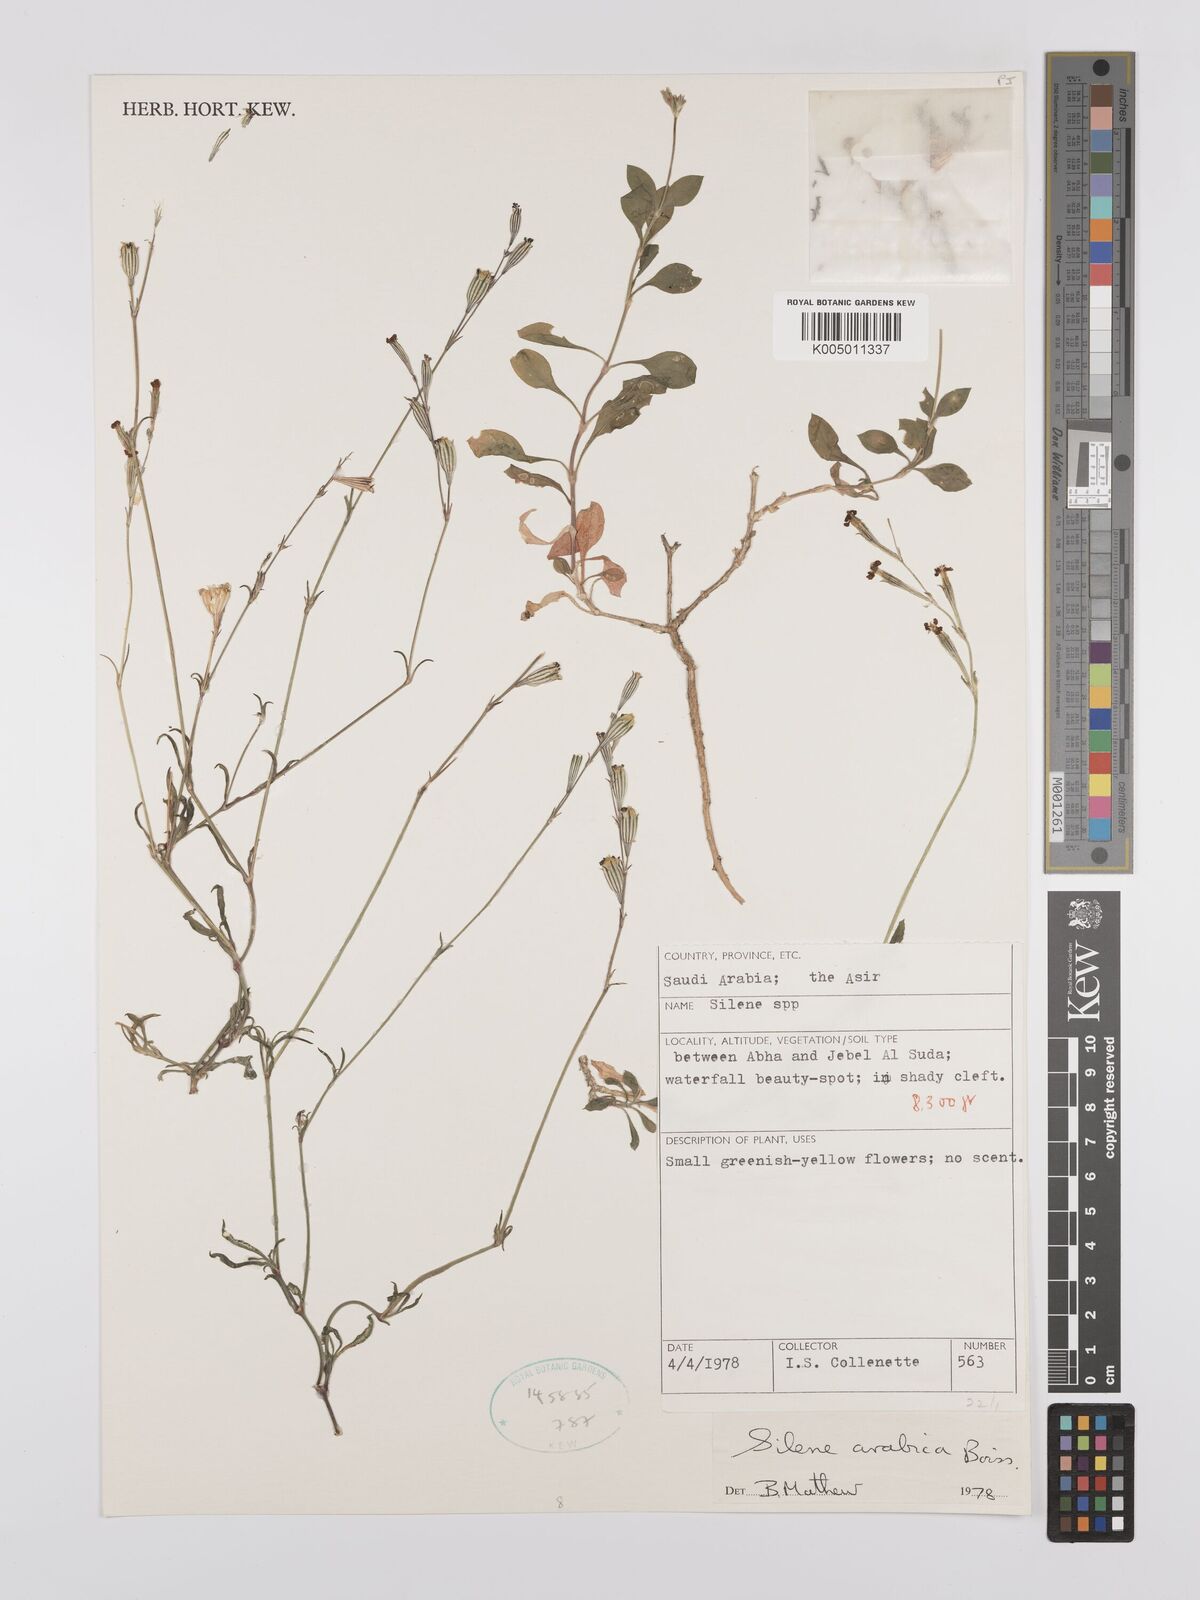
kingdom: Plantae
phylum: Tracheophyta
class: Magnoliopsida
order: Caryophyllales
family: Caryophyllaceae
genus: Silene
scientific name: Silene arabica
